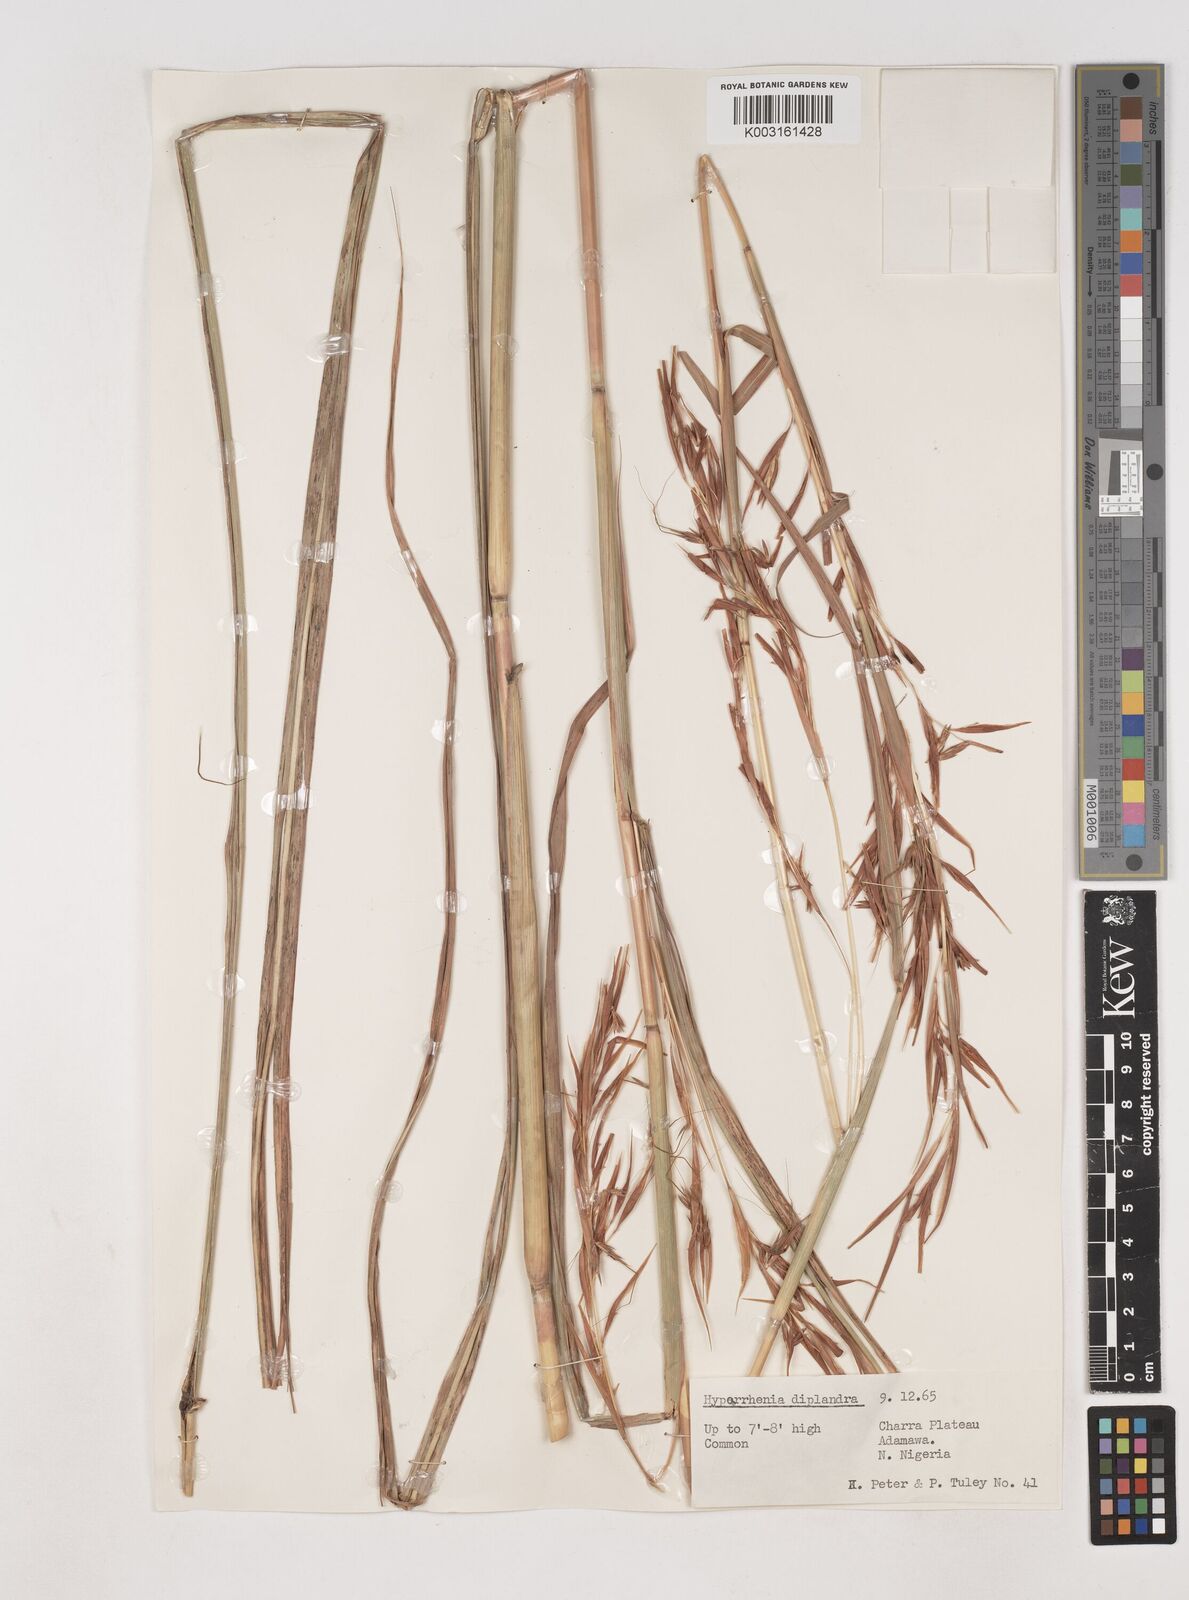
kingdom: Plantae
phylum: Tracheophyta
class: Liliopsida
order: Poales
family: Poaceae
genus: Hyparrhenia
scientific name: Hyparrhenia diplandra
